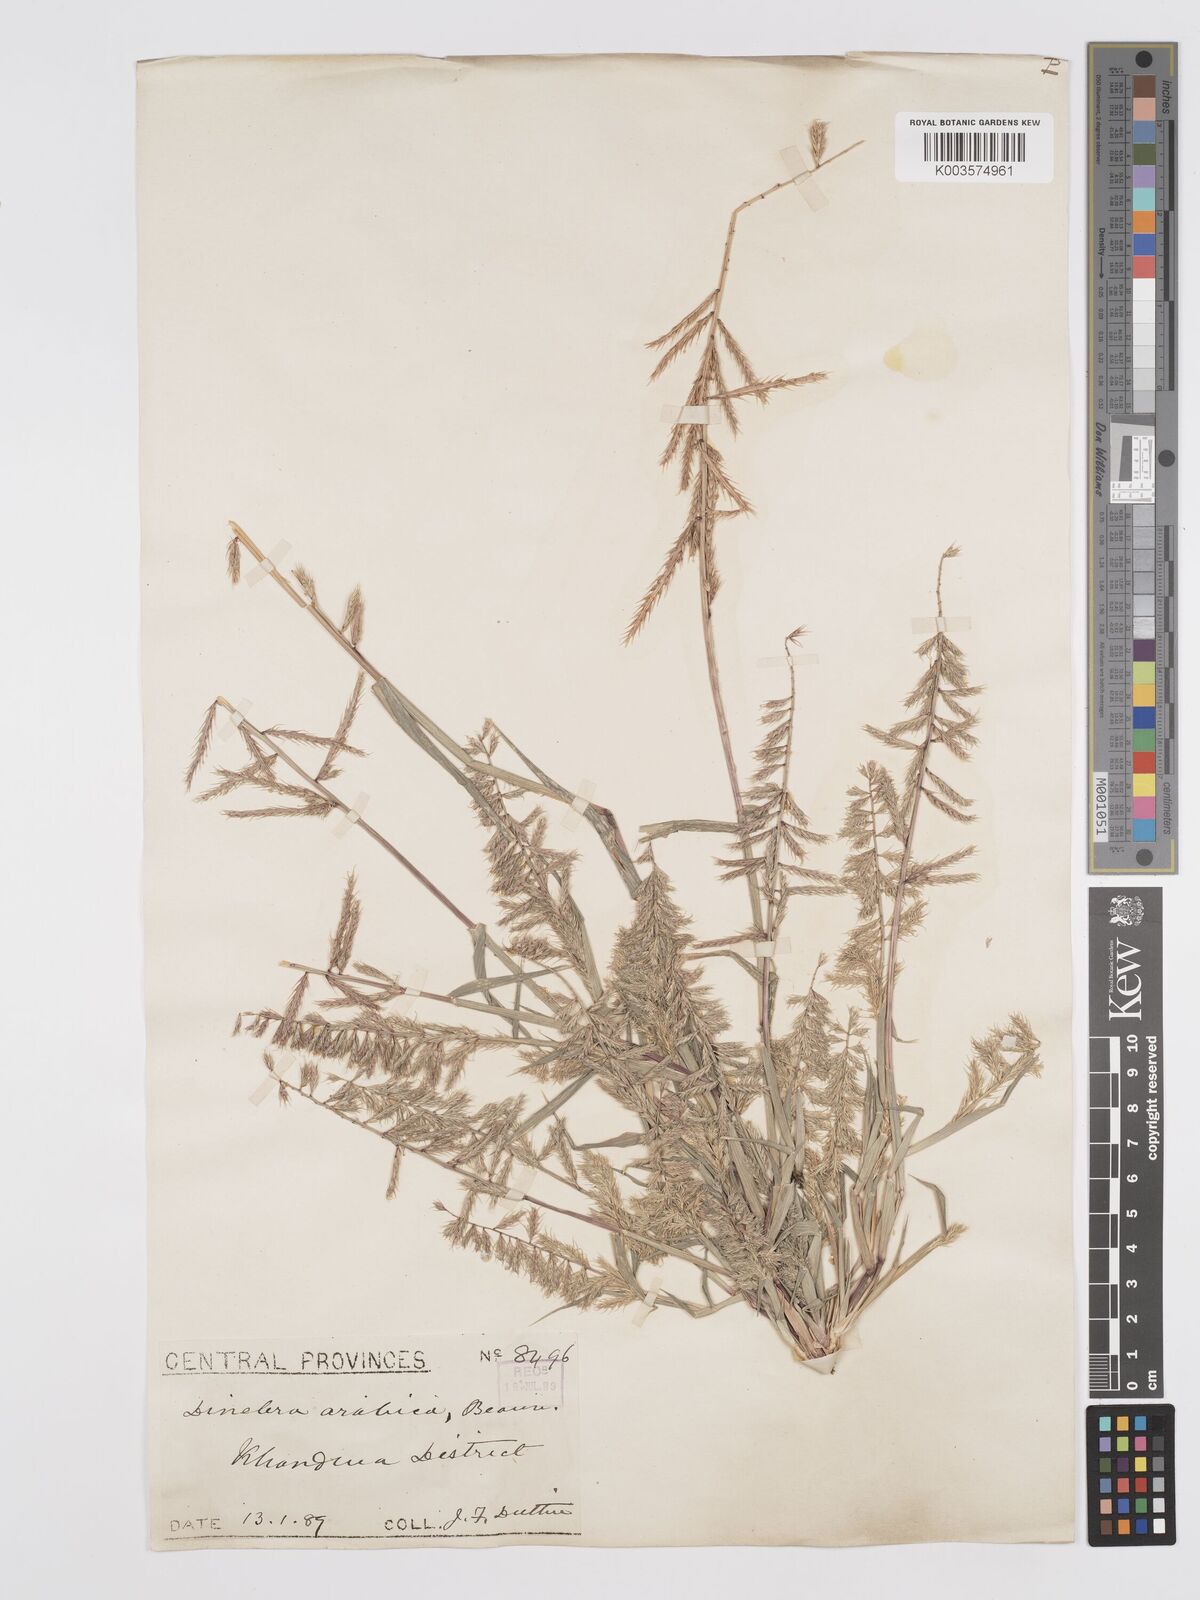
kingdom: Plantae
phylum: Tracheophyta
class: Liliopsida
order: Poales
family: Poaceae
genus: Dinebra
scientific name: Dinebra retroflexa
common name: Viper grass
